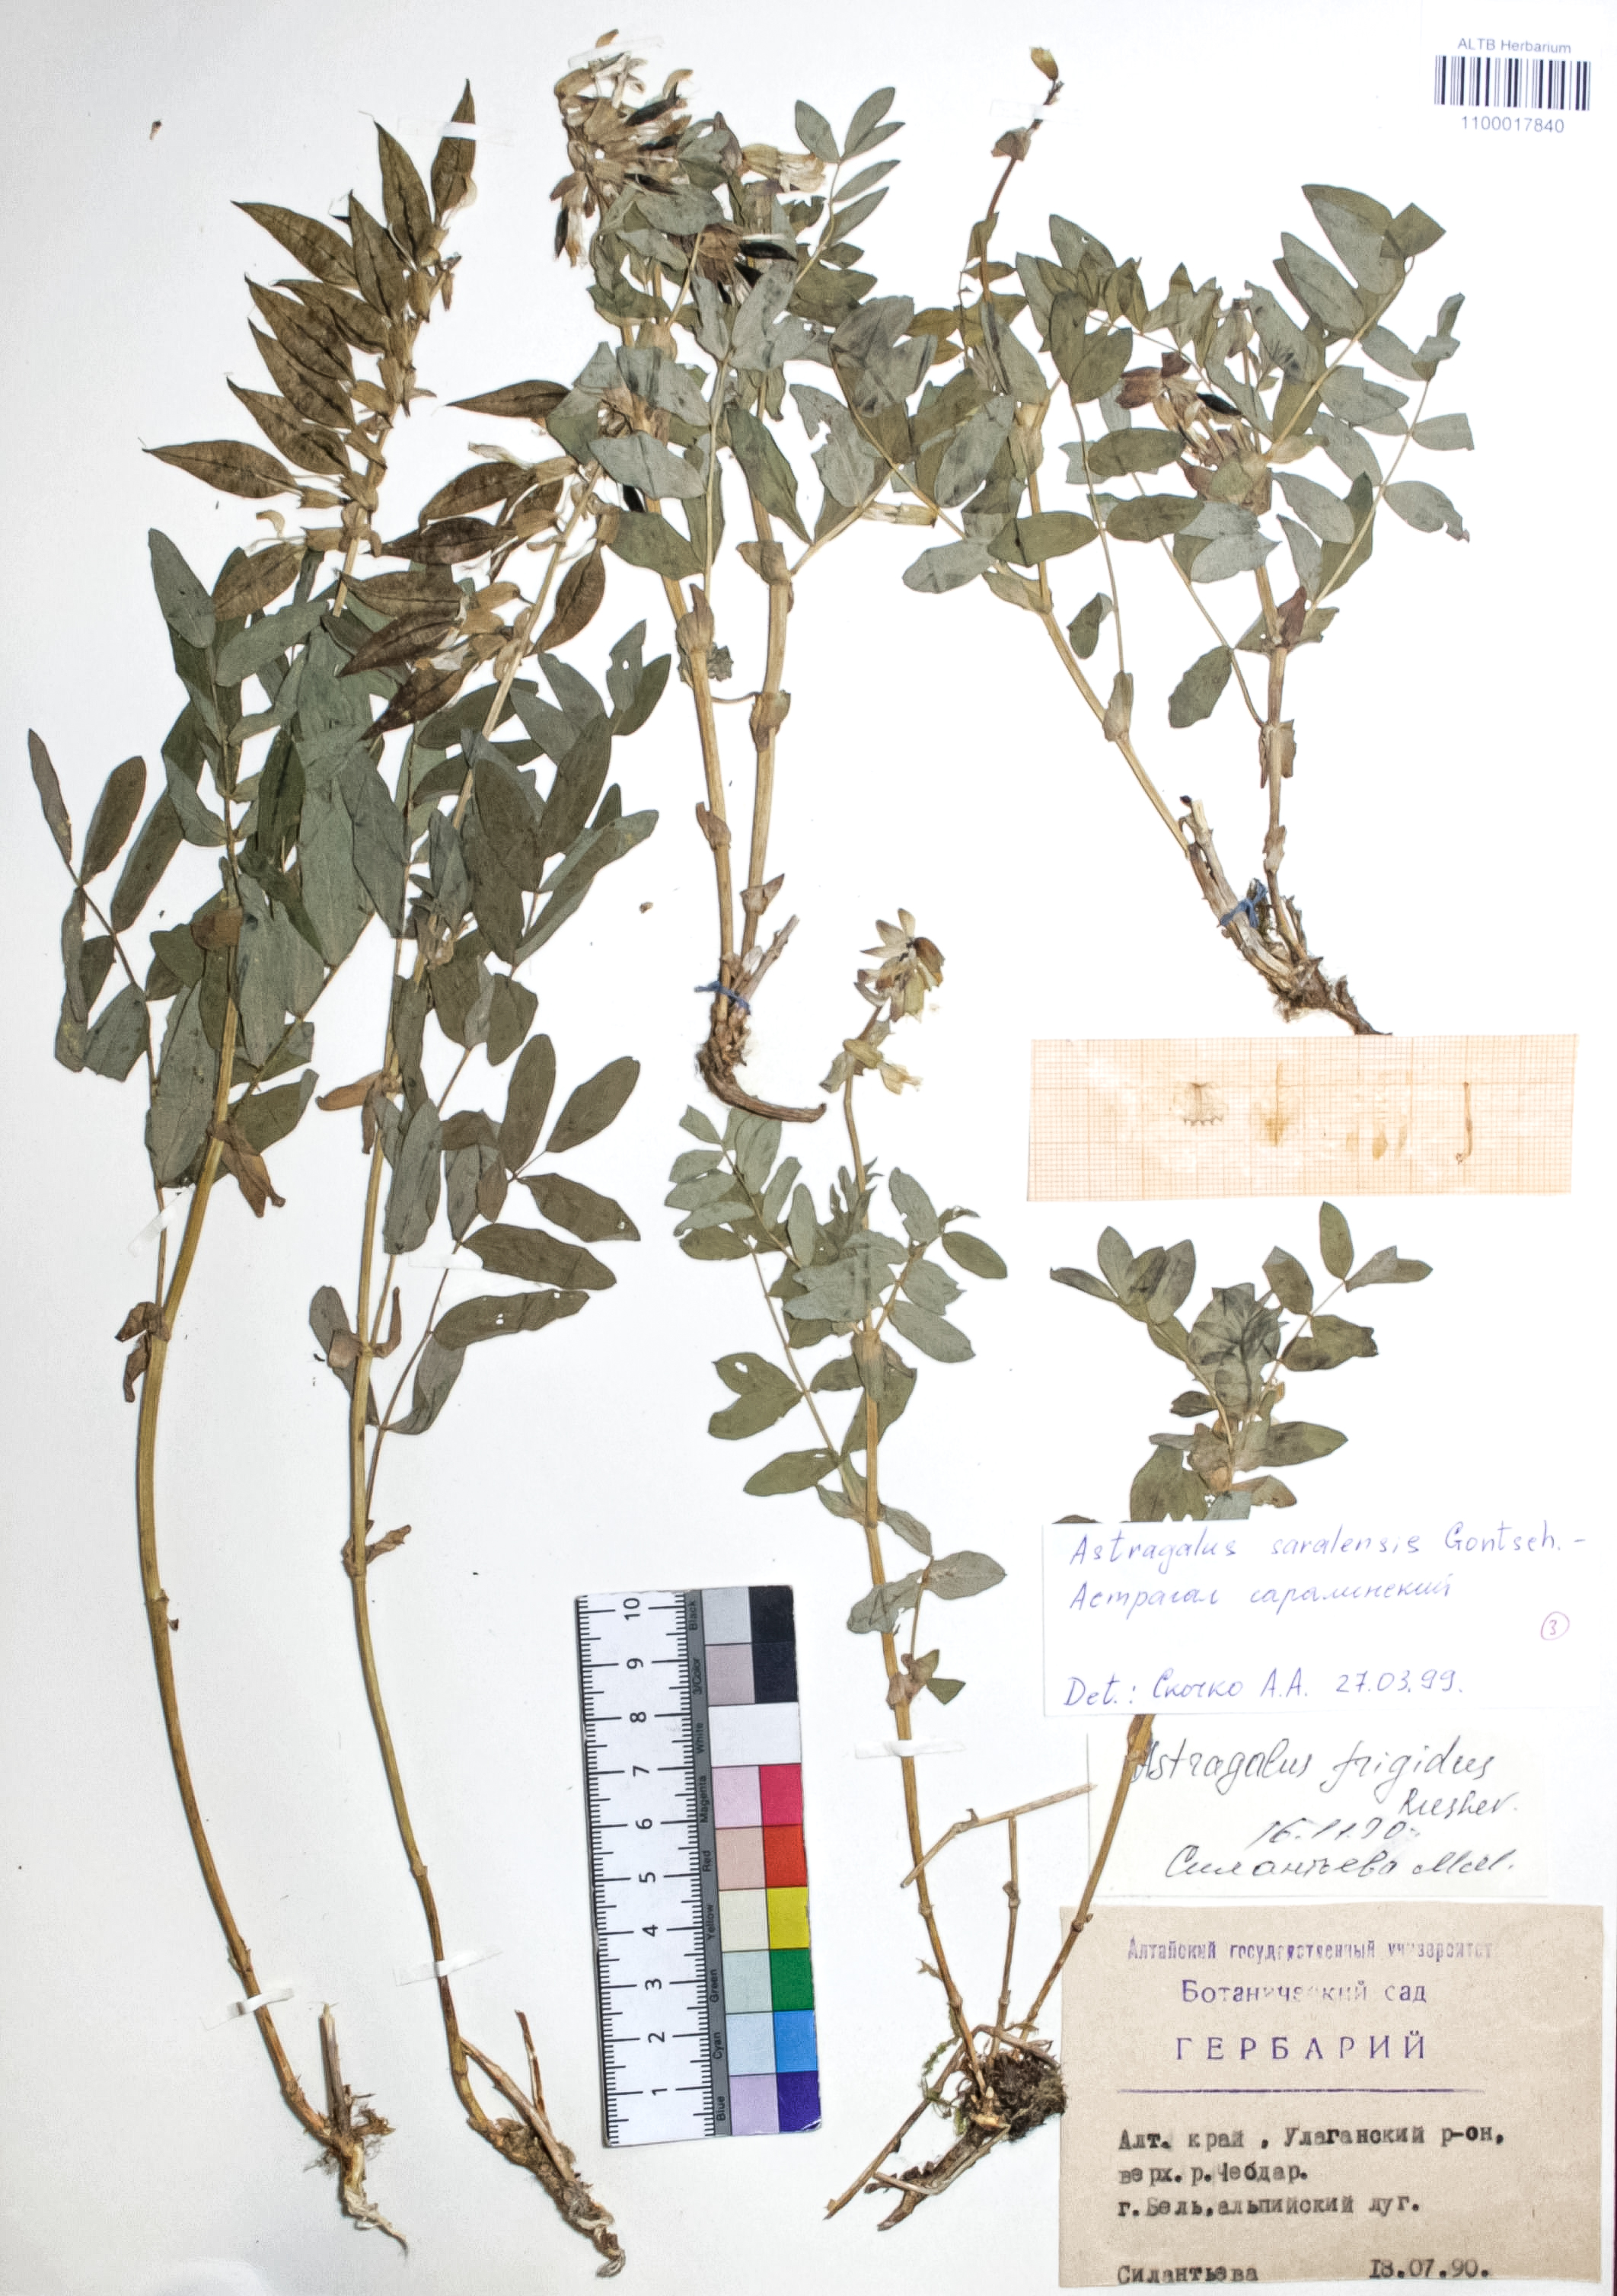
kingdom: Plantae
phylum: Tracheophyta
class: Magnoliopsida
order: Fabales
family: Fabaceae
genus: Astragalus
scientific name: Astragalus saralensis
